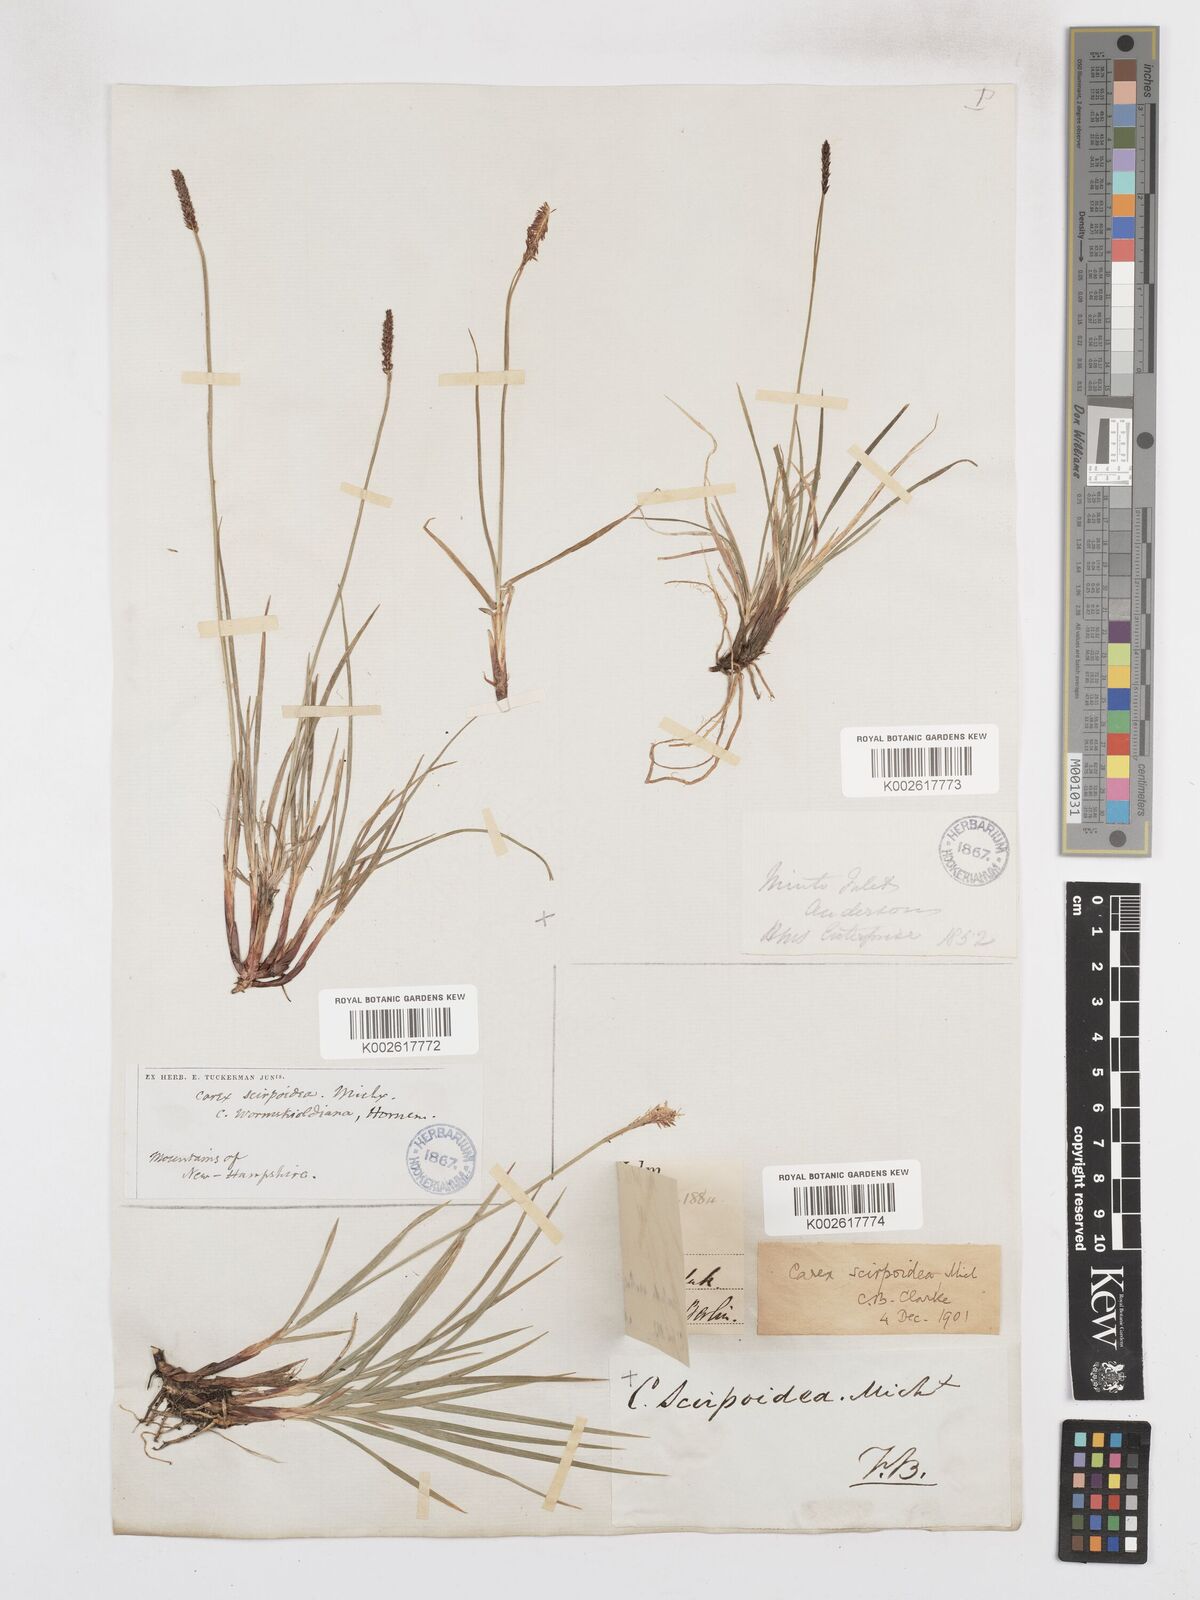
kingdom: Plantae
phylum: Tracheophyta
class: Liliopsida
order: Poales
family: Cyperaceae
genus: Carex
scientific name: Carex scirpoidea
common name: Canada single-spike sedge
